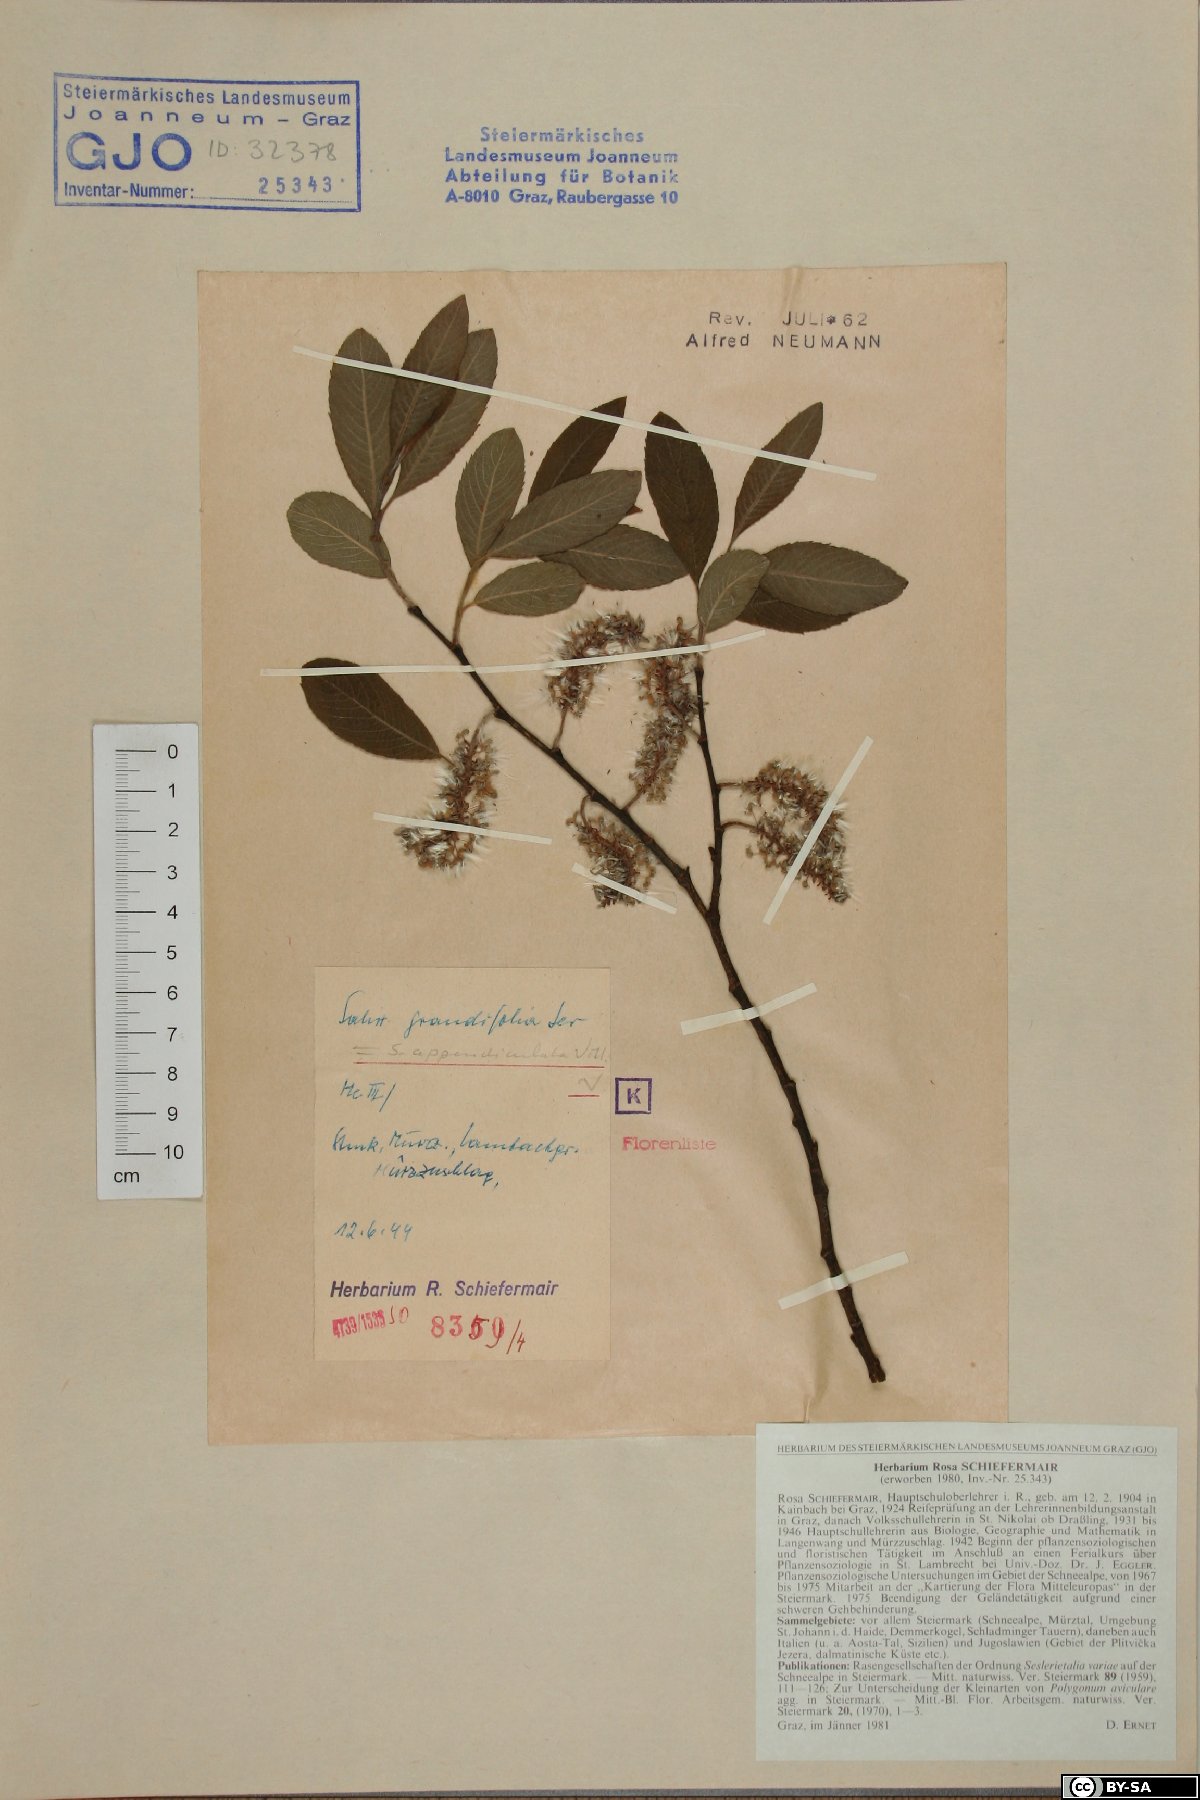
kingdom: Plantae
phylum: Tracheophyta
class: Magnoliopsida
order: Malpighiales
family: Salicaceae
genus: Salix
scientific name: Salix appendiculata
